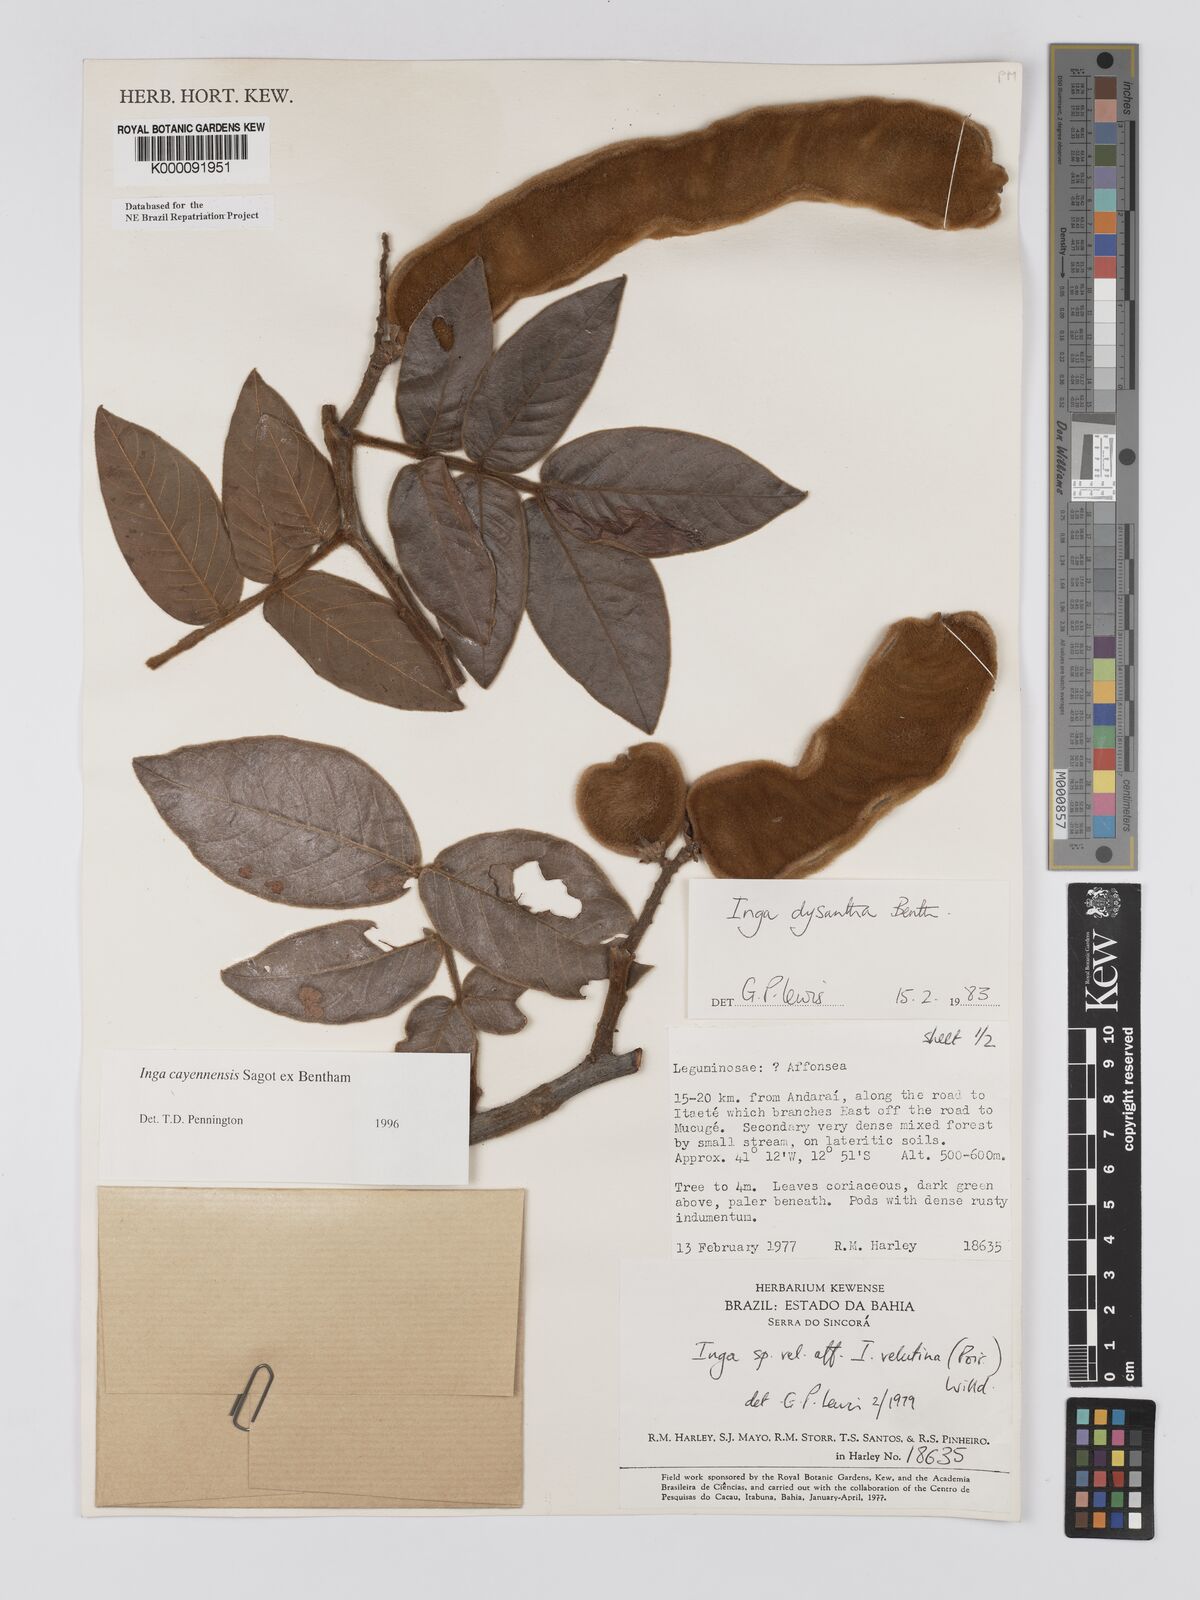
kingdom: Plantae
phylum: Tracheophyta
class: Magnoliopsida
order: Fabales
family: Fabaceae
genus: Inga
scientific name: Inga
